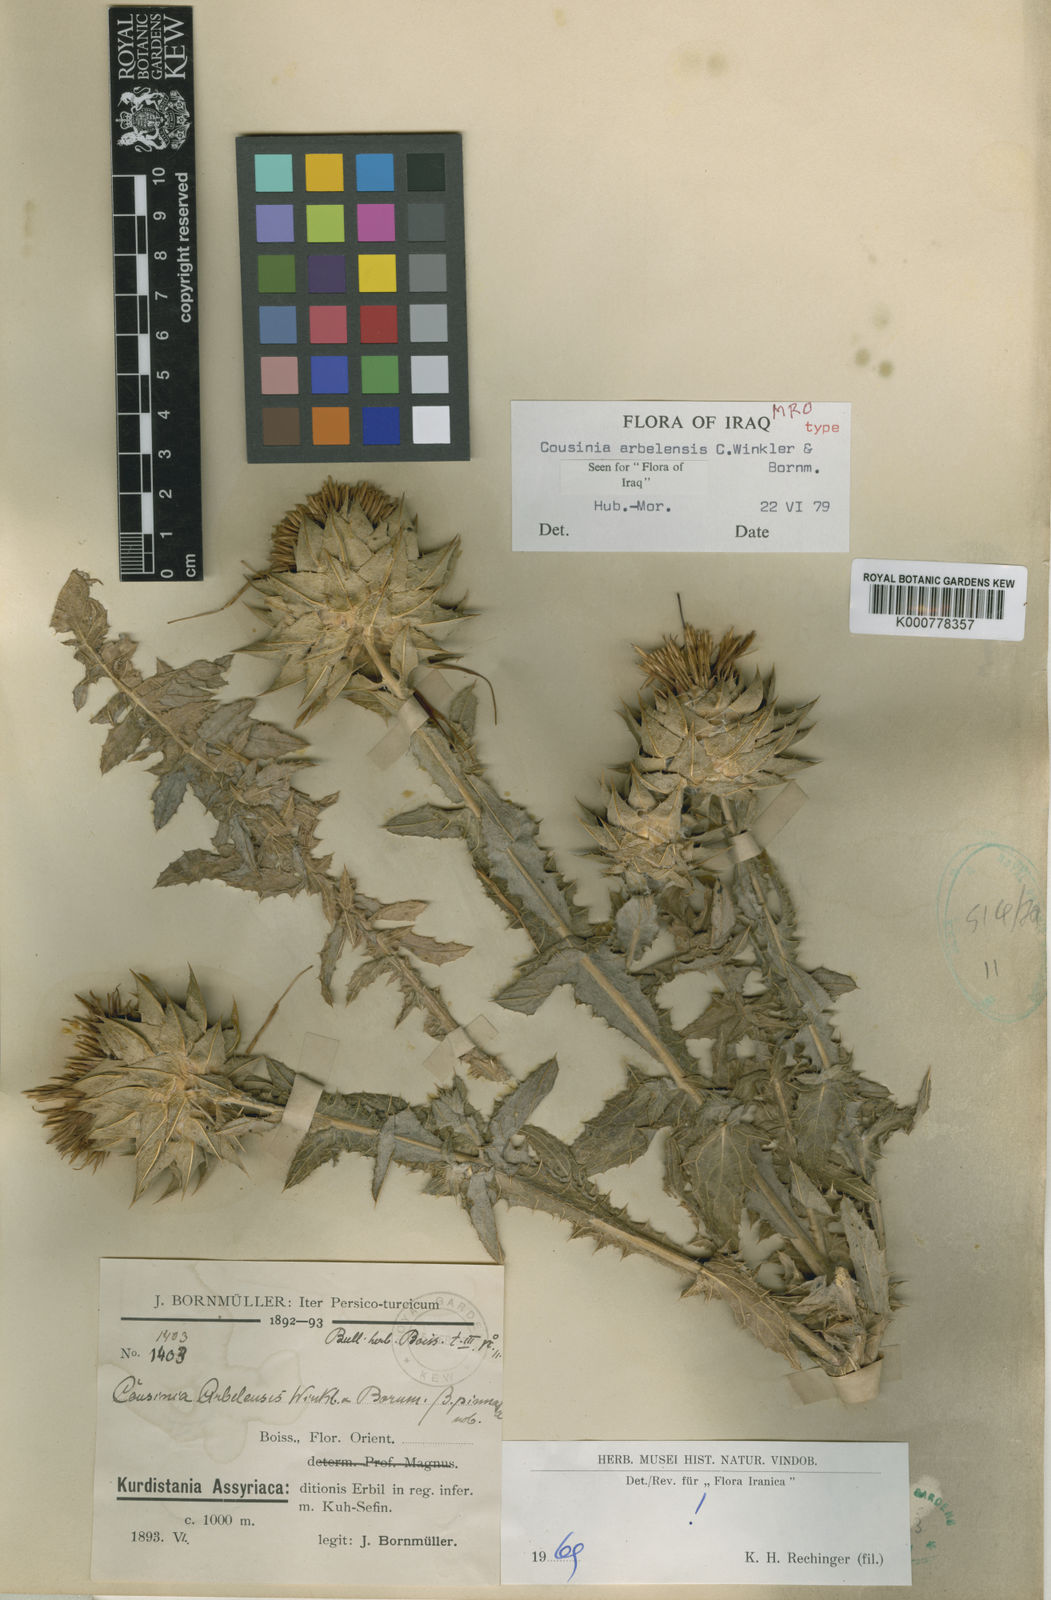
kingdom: Plantae
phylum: Tracheophyta
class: Magnoliopsida
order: Asterales
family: Asteraceae
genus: Cousinia
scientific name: Cousinia aintabensis
